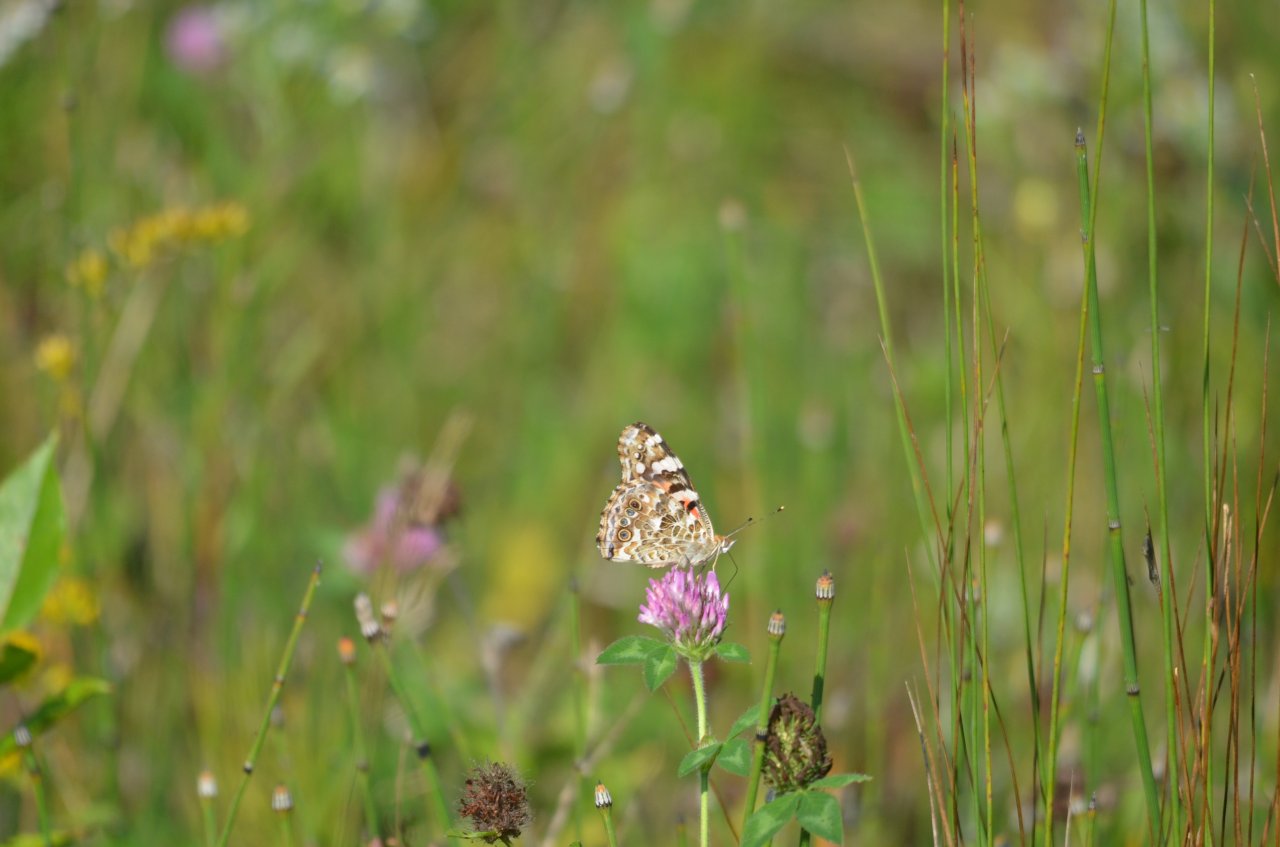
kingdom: Animalia
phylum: Arthropoda
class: Insecta
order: Lepidoptera
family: Nymphalidae
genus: Vanessa
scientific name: Vanessa cardui
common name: Painted Lady
